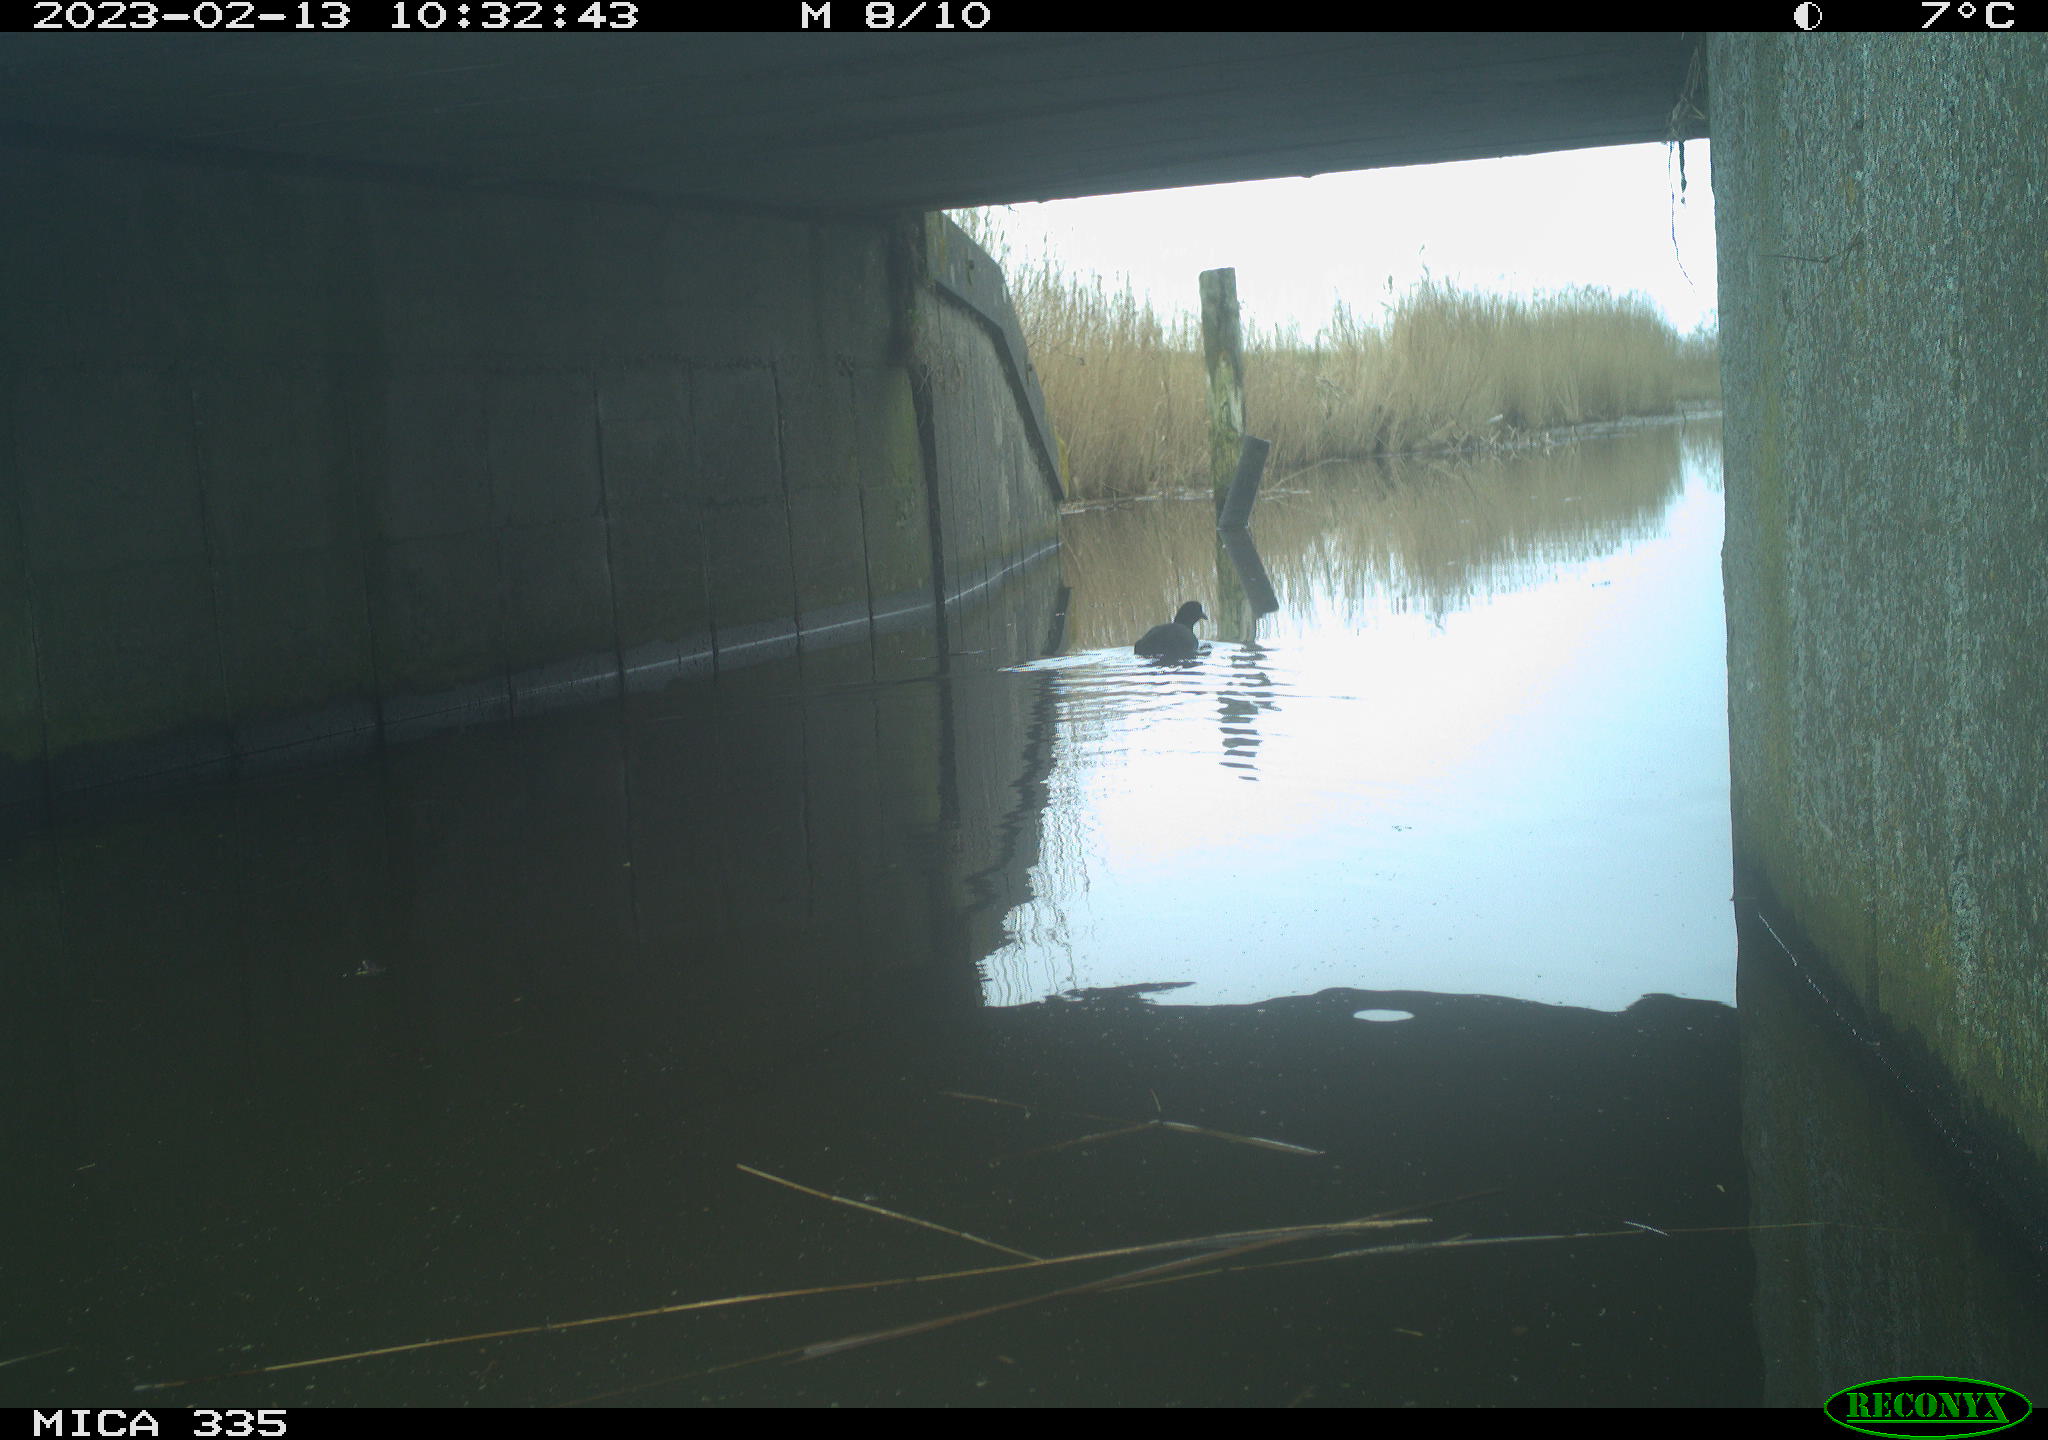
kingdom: Animalia
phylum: Chordata
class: Aves
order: Gruiformes
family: Rallidae
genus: Fulica
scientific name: Fulica atra
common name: Eurasian coot
